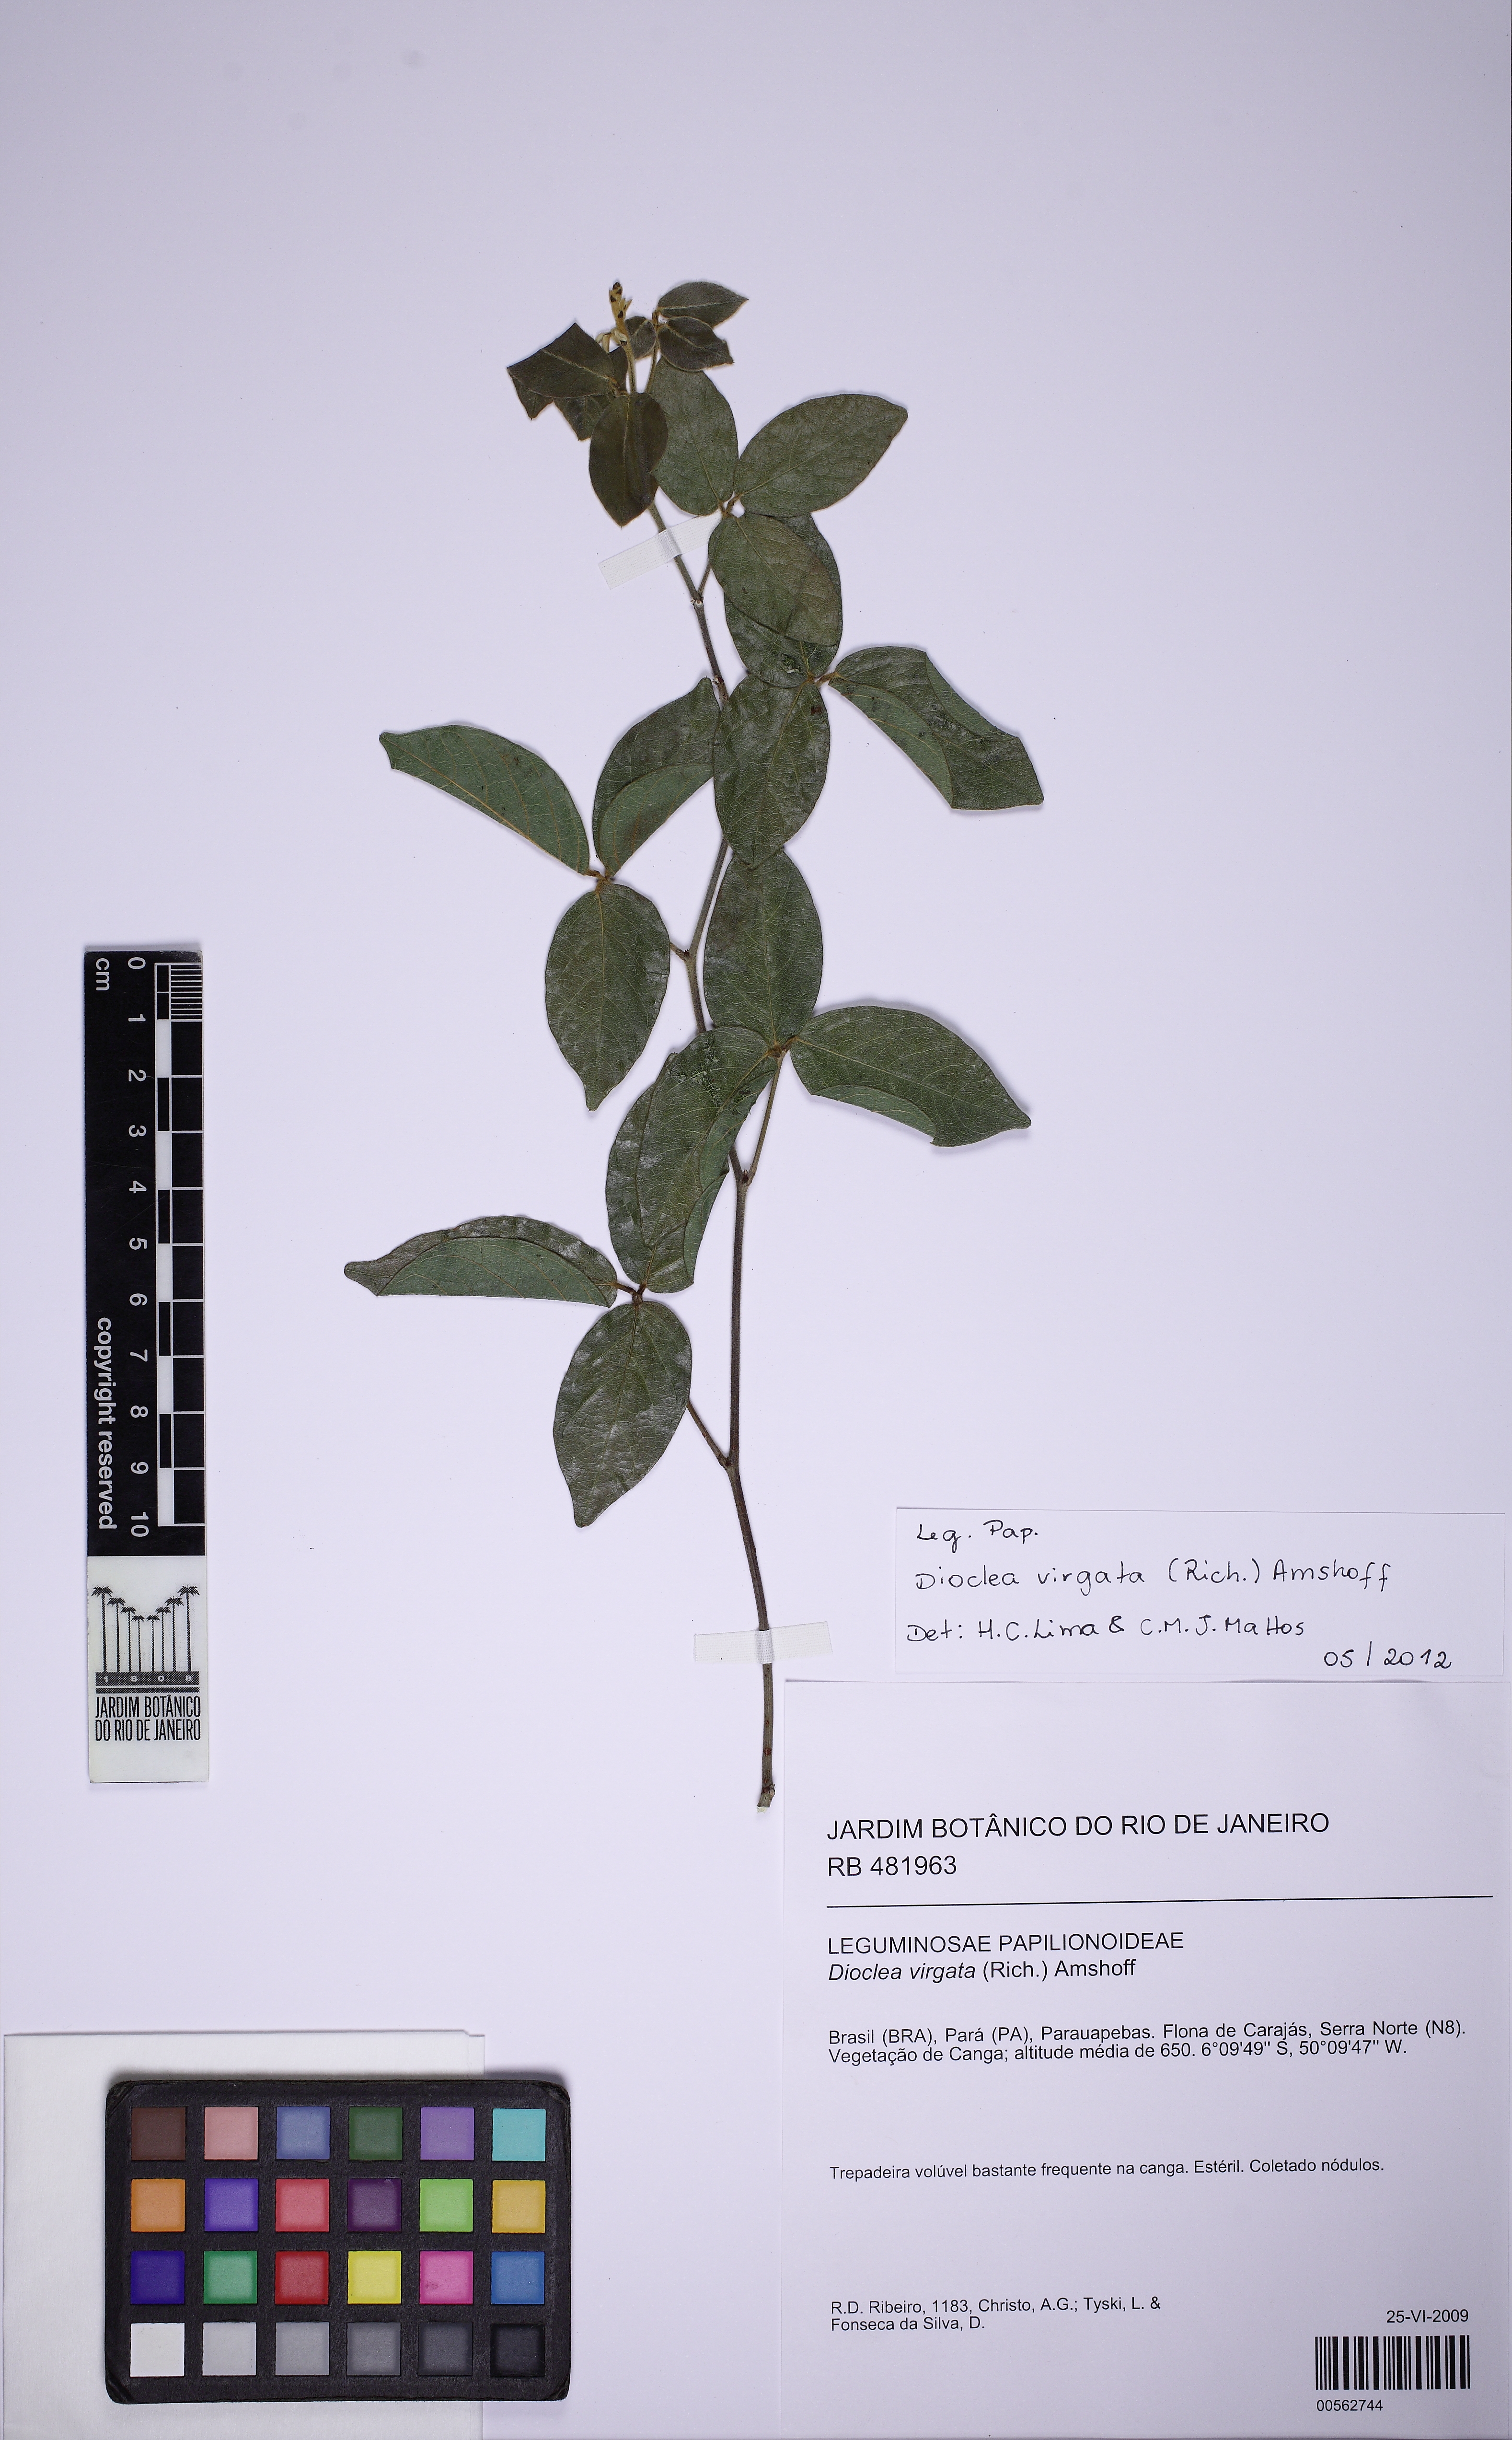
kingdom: Plantae
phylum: Tracheophyta
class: Magnoliopsida
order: Fabales
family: Fabaceae
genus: Dioclea
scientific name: Dioclea apurensis
